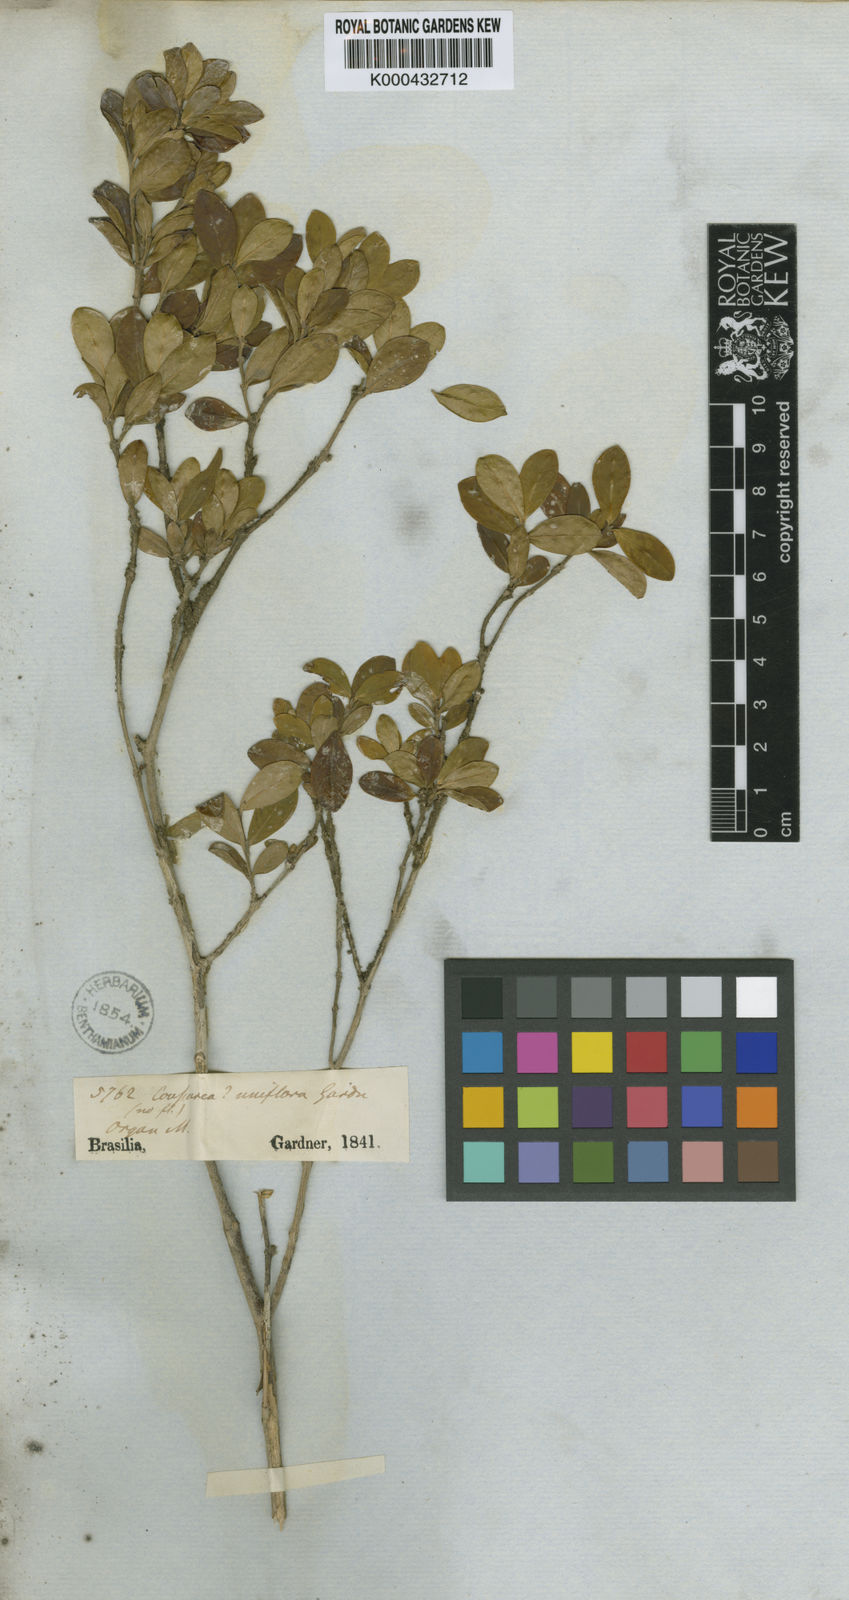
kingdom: Plantae
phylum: Tracheophyta
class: Magnoliopsida
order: Gentianales
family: Rubiaceae
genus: Coussarea
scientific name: Coussarea uniflora
